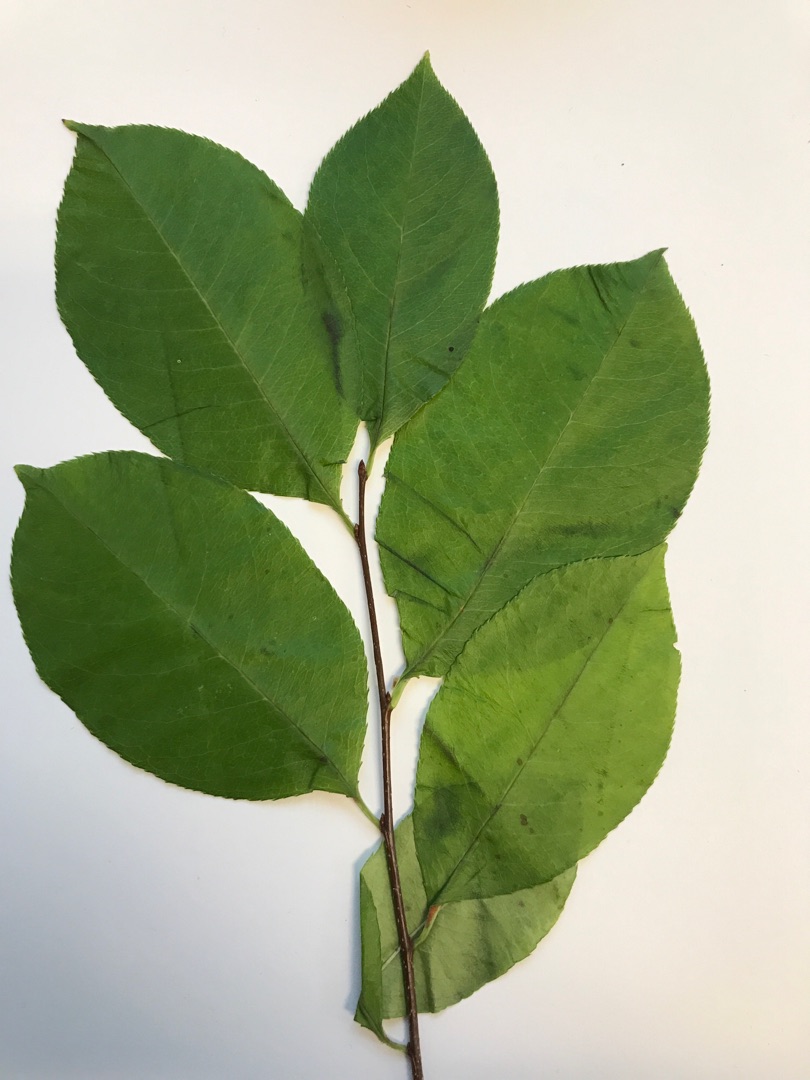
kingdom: Plantae
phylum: Tracheophyta
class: Magnoliopsida
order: Rosales
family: Rosaceae
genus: Prunus
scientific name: Prunus serotina
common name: Glansbladet hæg
